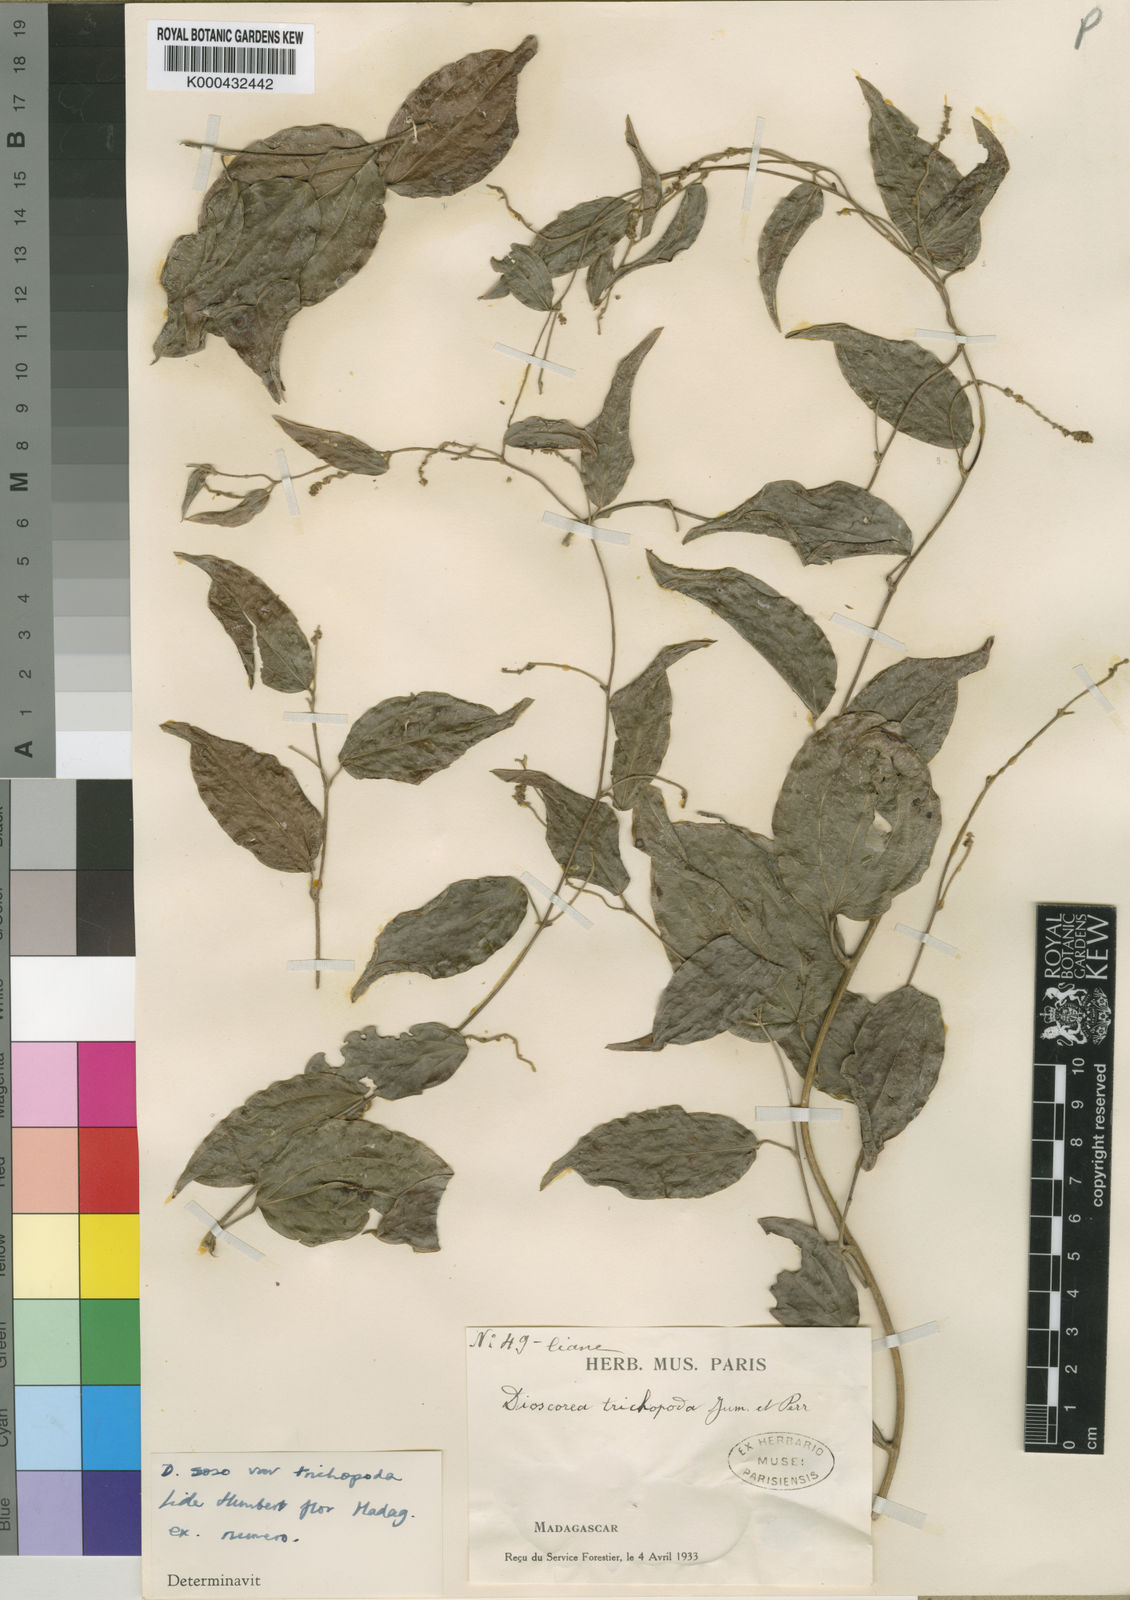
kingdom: Plantae
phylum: Tracheophyta
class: Liliopsida
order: Dioscoreales
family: Dioscoreaceae
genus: Dioscorea
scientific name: Dioscorea soso
